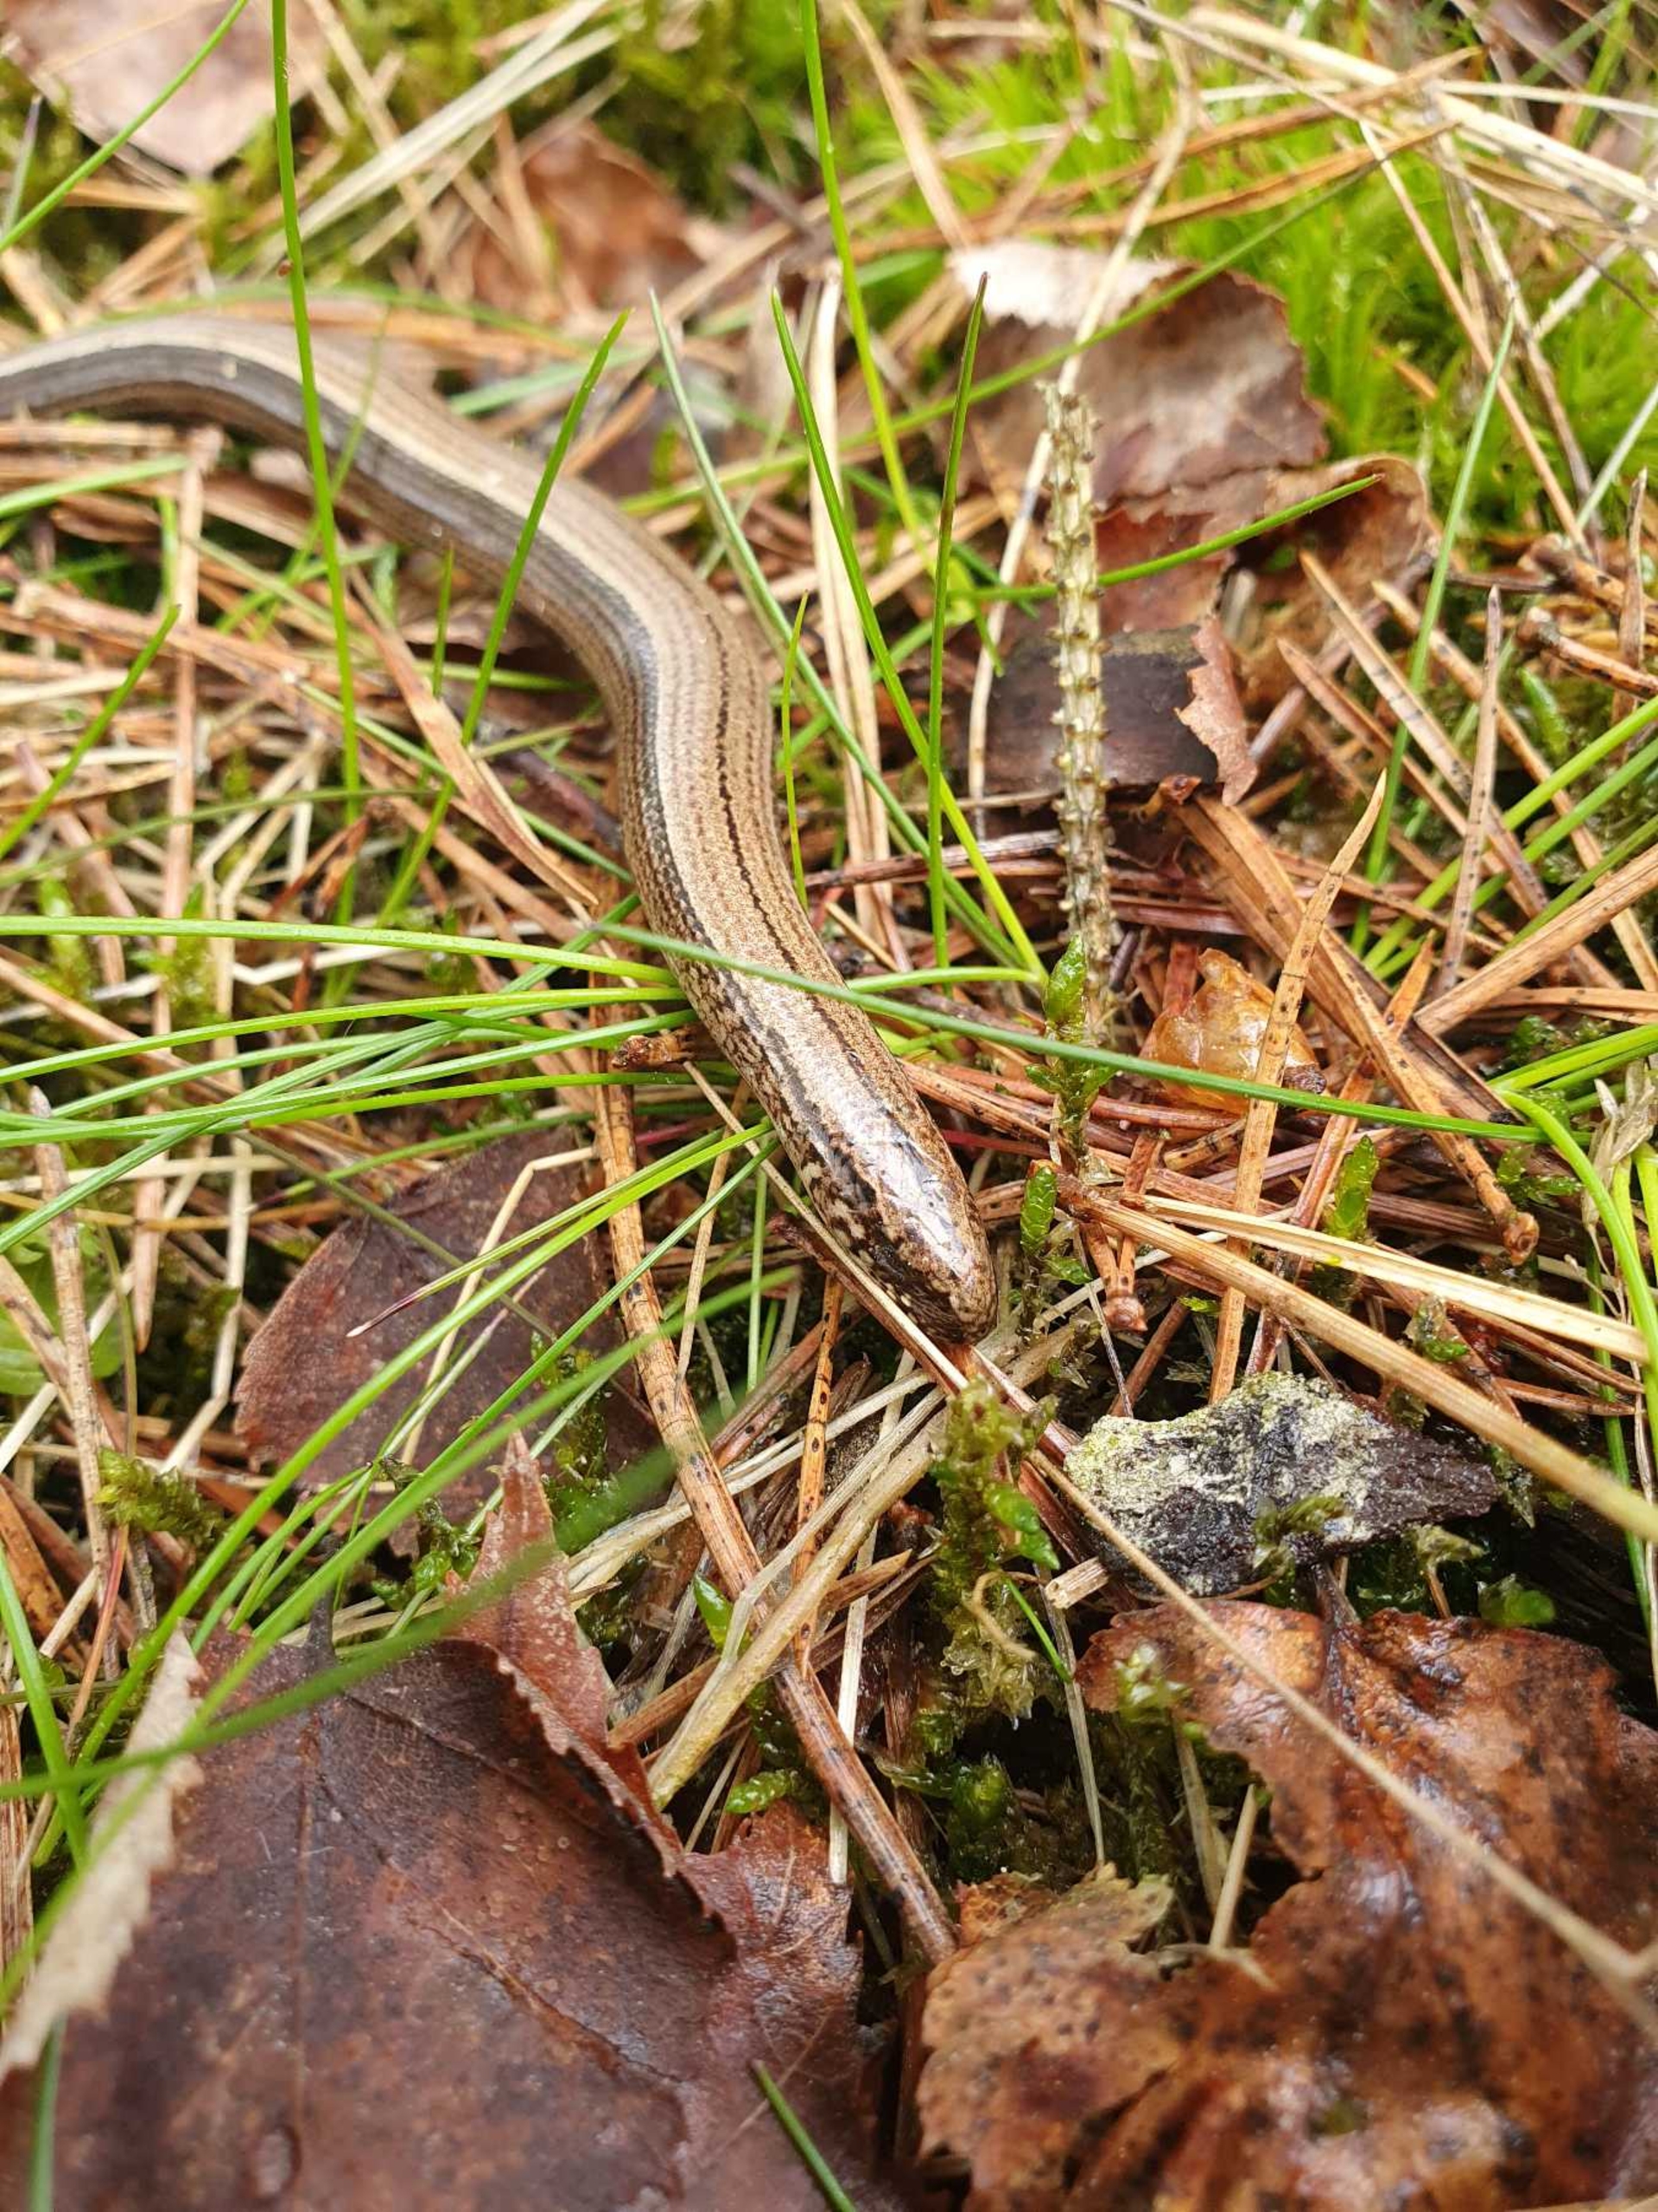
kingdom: Animalia
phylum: Chordata
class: Squamata
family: Anguidae
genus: Anguis
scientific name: Anguis fragilis
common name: Stålorm
